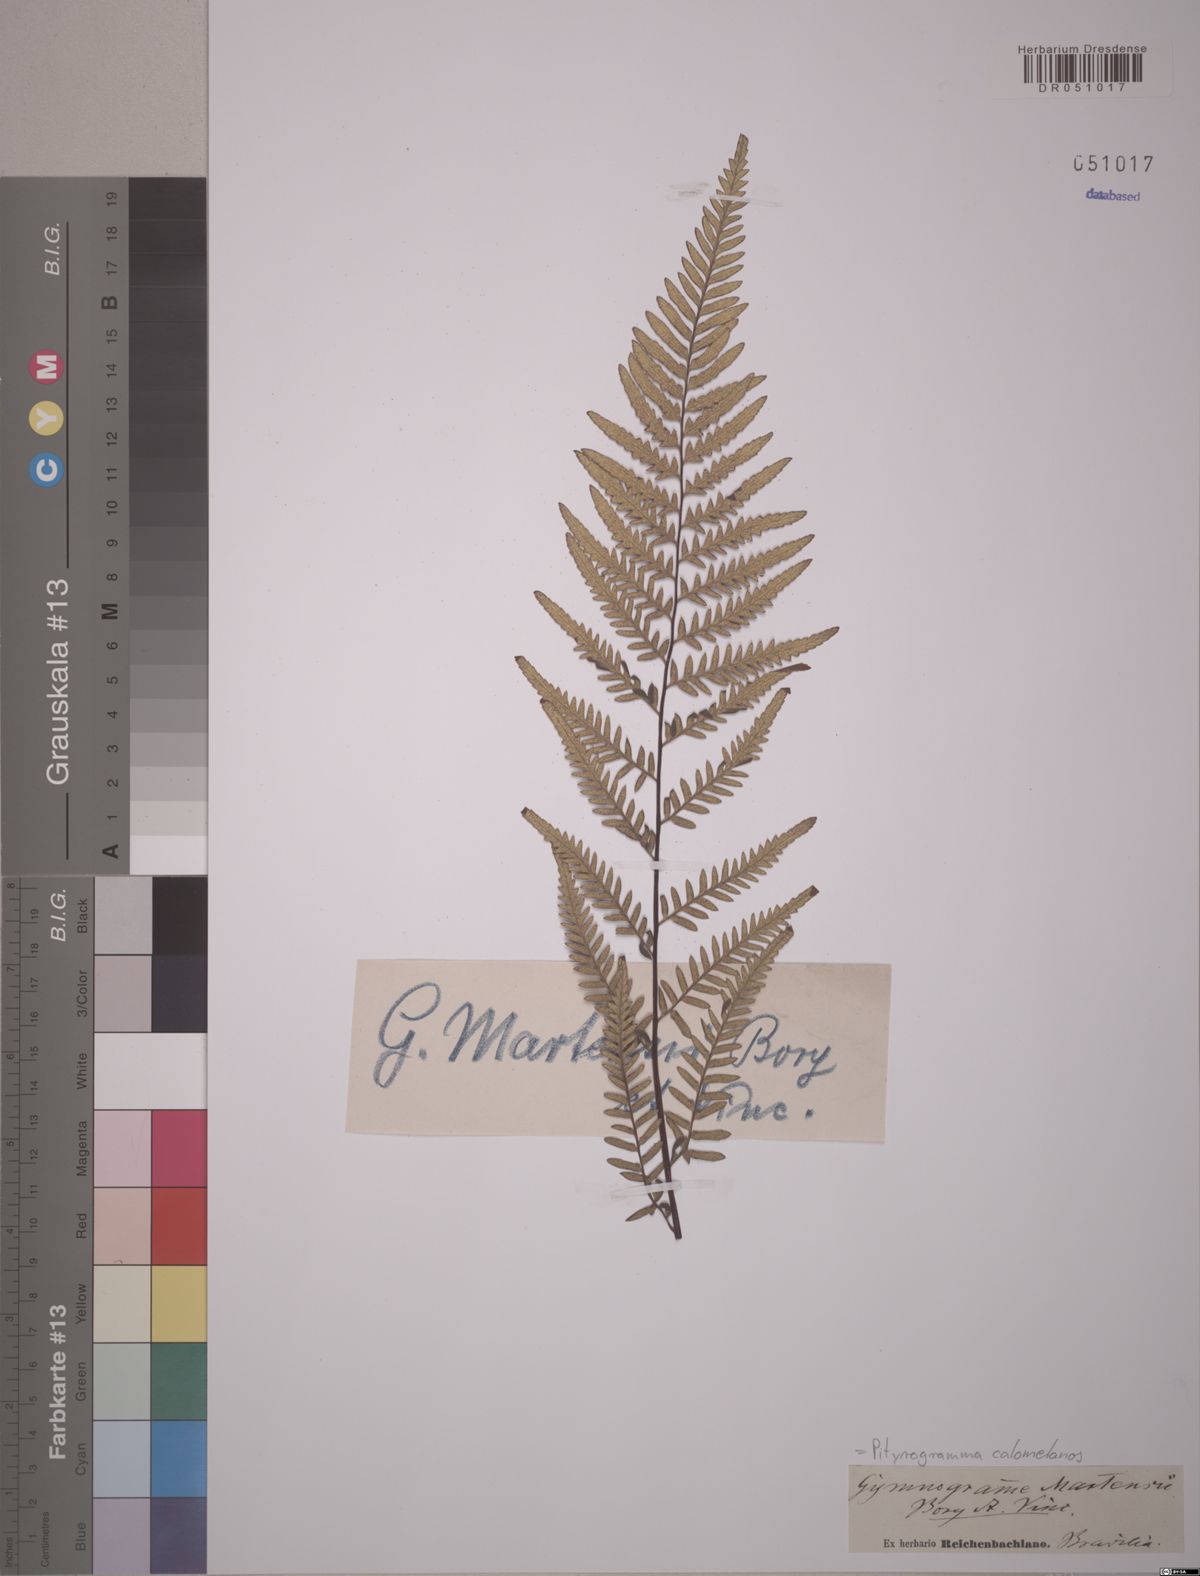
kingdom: Plantae
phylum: Tracheophyta
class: Polypodiopsida
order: Polypodiales
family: Pteridaceae
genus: Pityrogramma
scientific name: Pityrogramma calomelanos
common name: Dixie silverback fern
